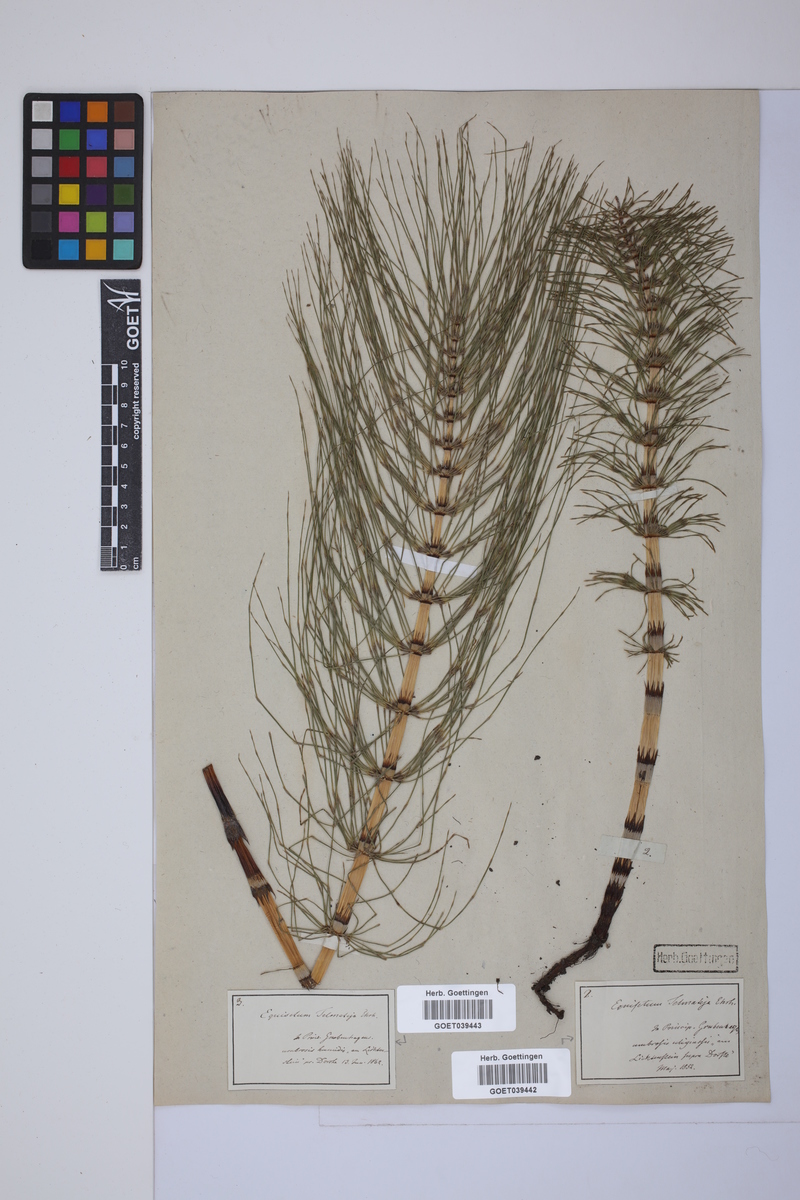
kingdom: Plantae
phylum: Tracheophyta
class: Polypodiopsida
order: Equisetales
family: Equisetaceae
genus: Equisetum
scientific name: Equisetum telmateia
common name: Great horsetail
